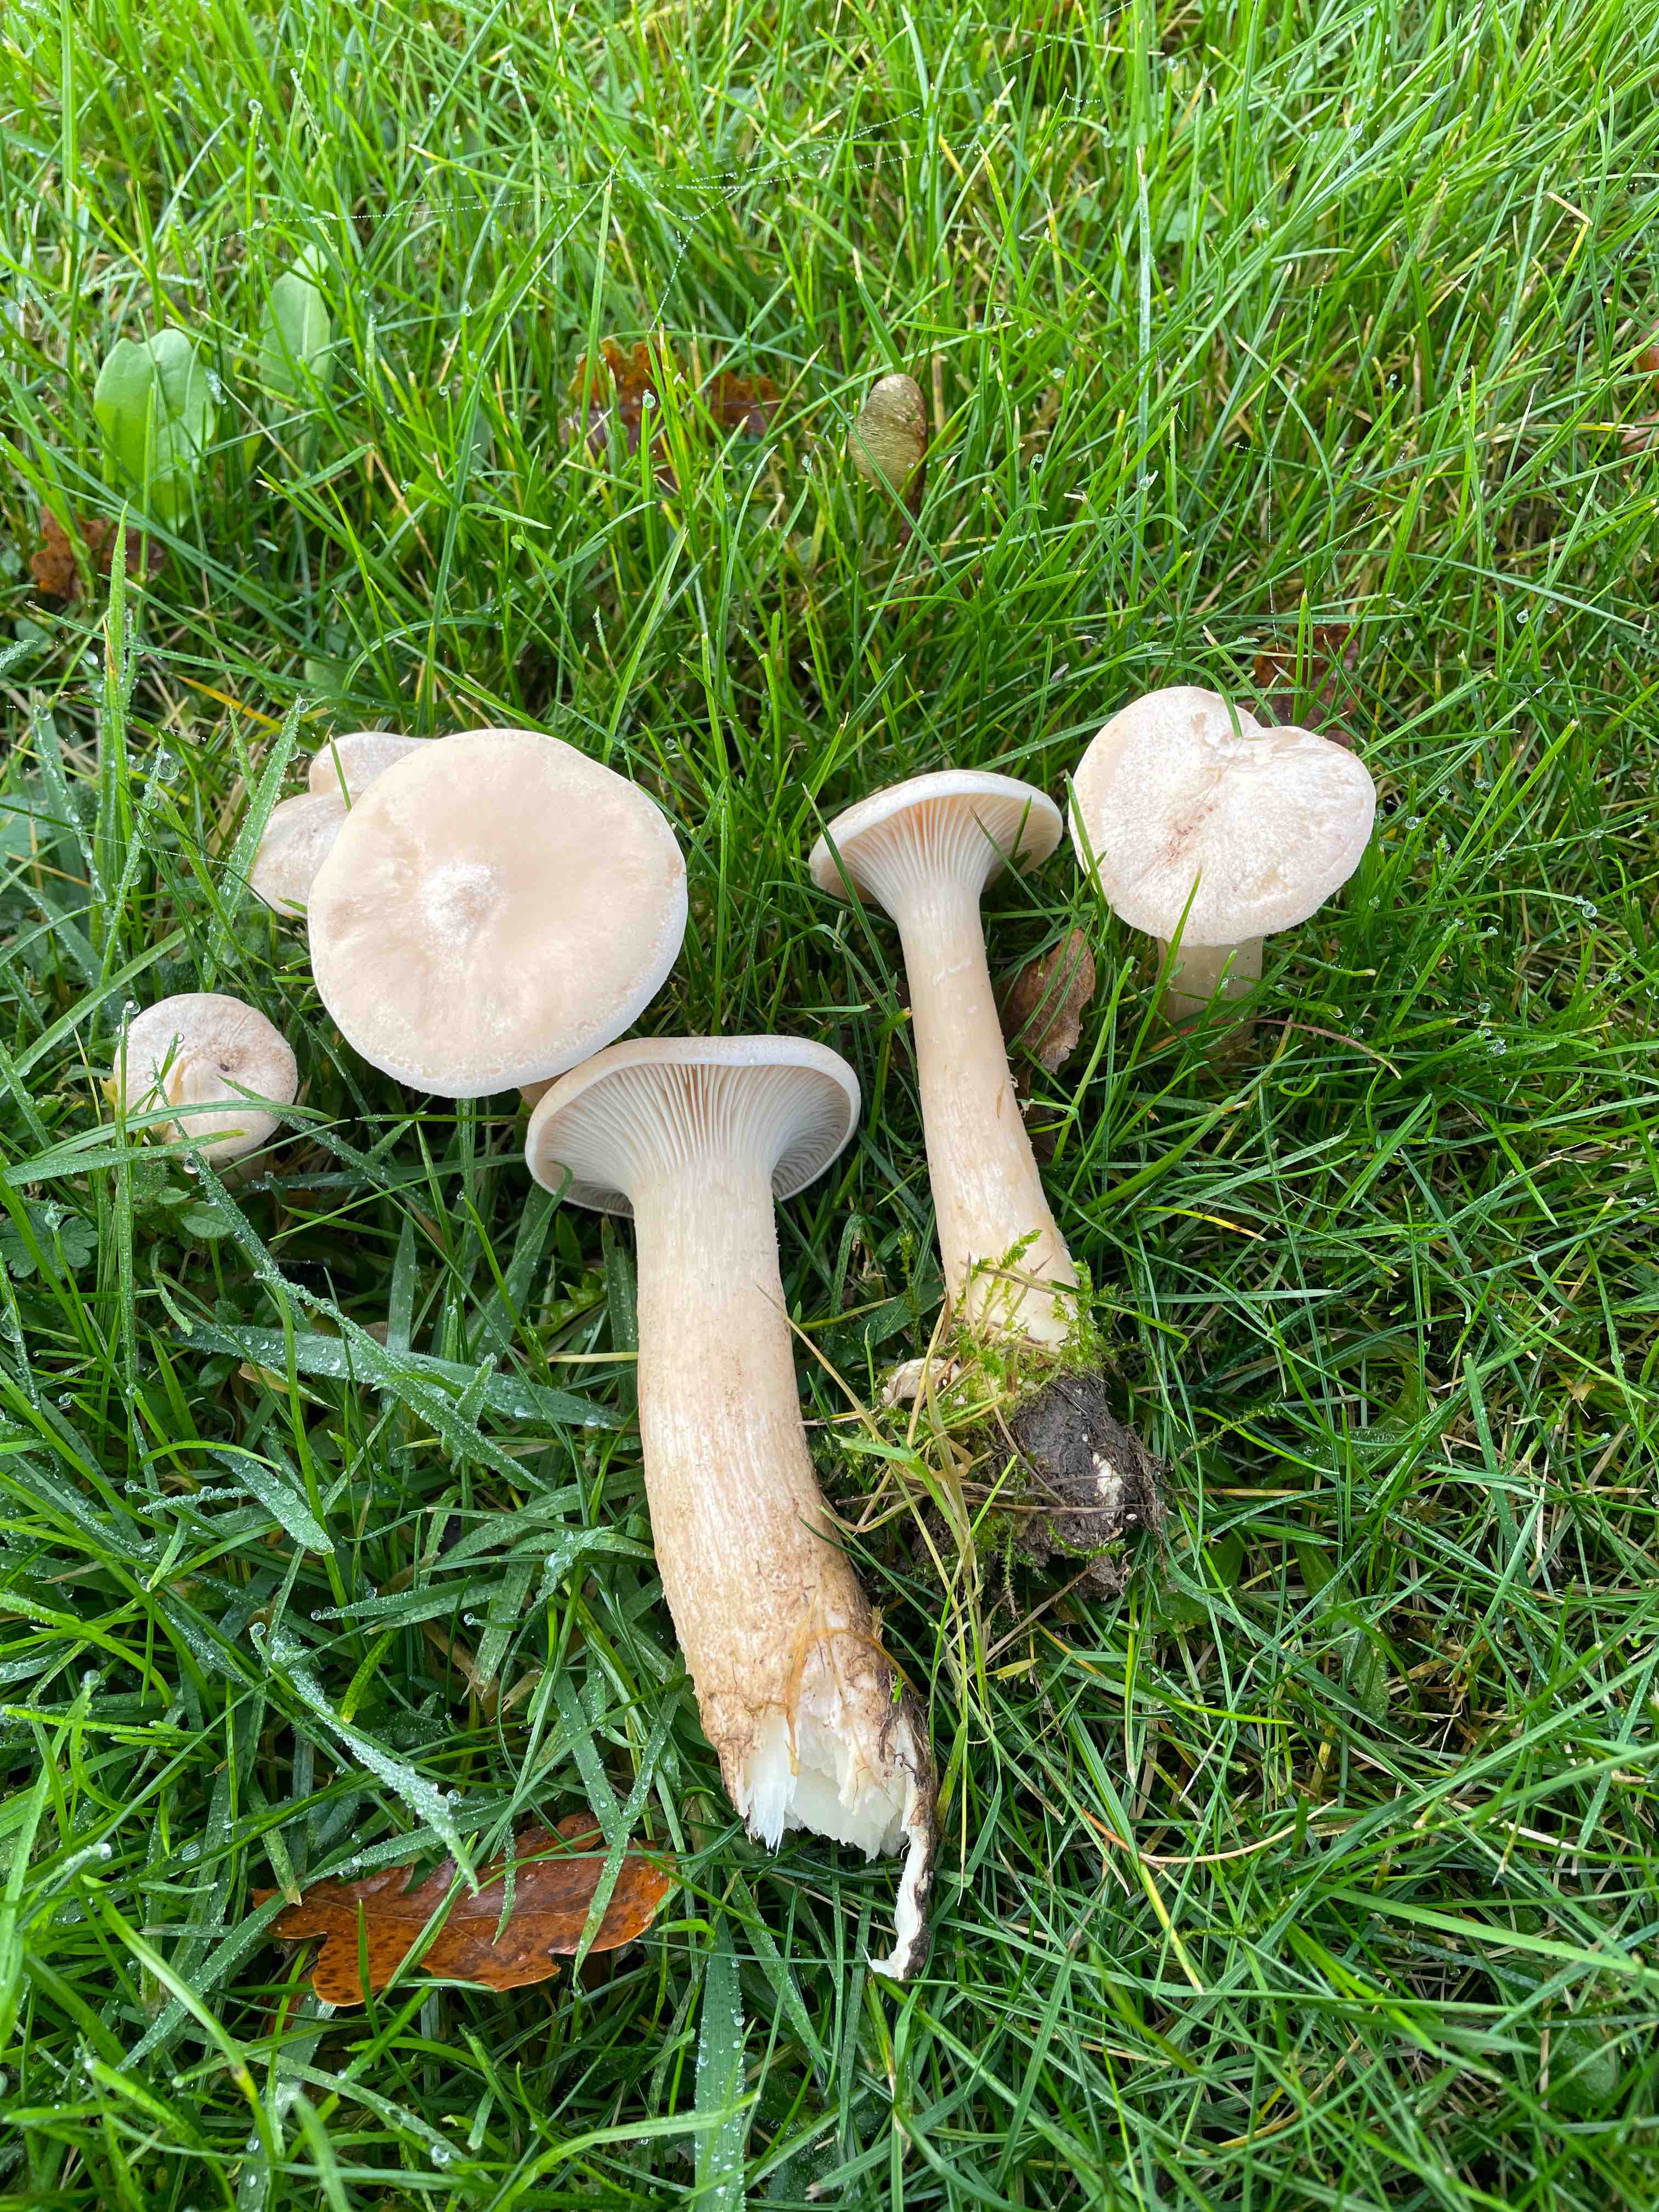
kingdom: Fungi
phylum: Basidiomycota
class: Agaricomycetes
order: Agaricales
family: Tricholomataceae
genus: Infundibulicybe
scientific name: Infundibulicybe geotropa
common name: stor tragthat
